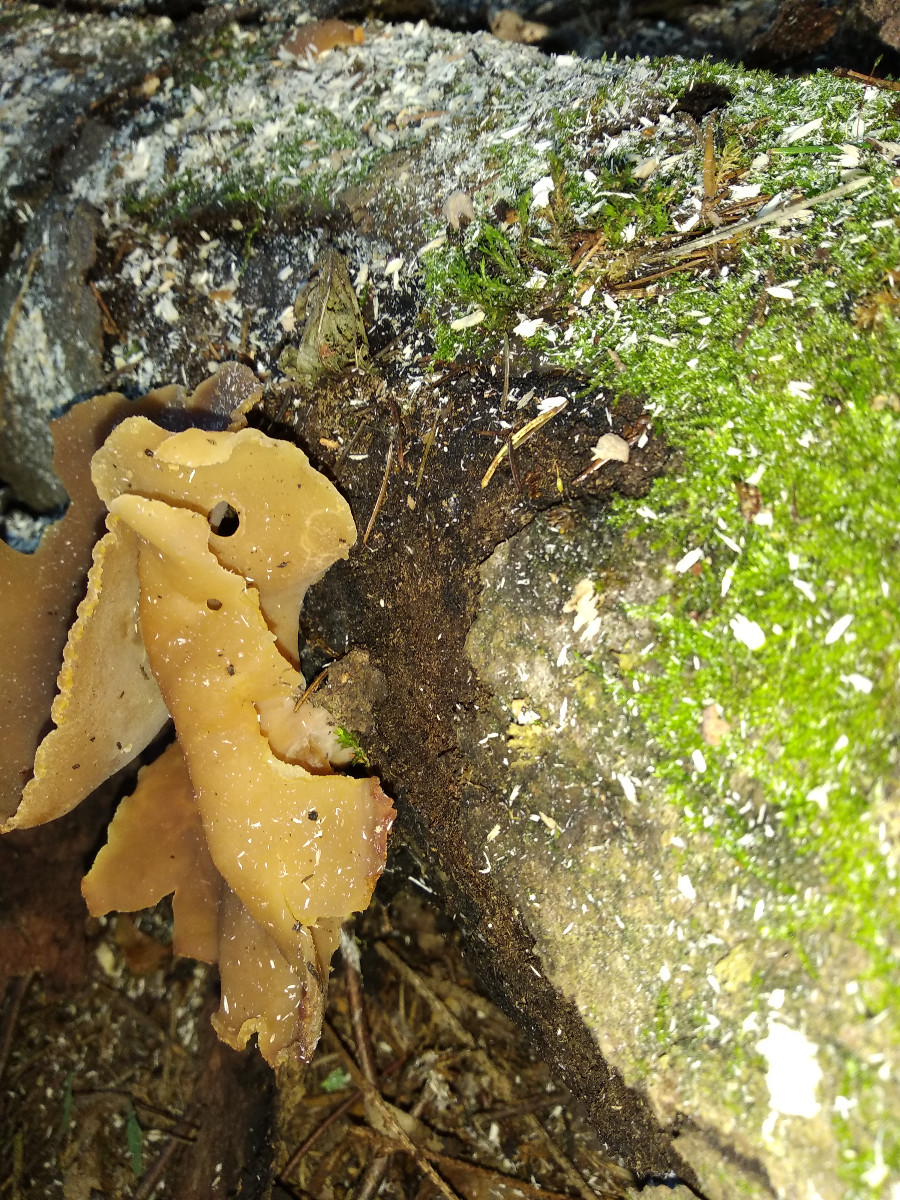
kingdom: Fungi
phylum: Ascomycota
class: Pezizomycetes
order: Pezizales
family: Pezizaceae
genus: Peziza
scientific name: Peziza varia
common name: Ved-bægersvamp
